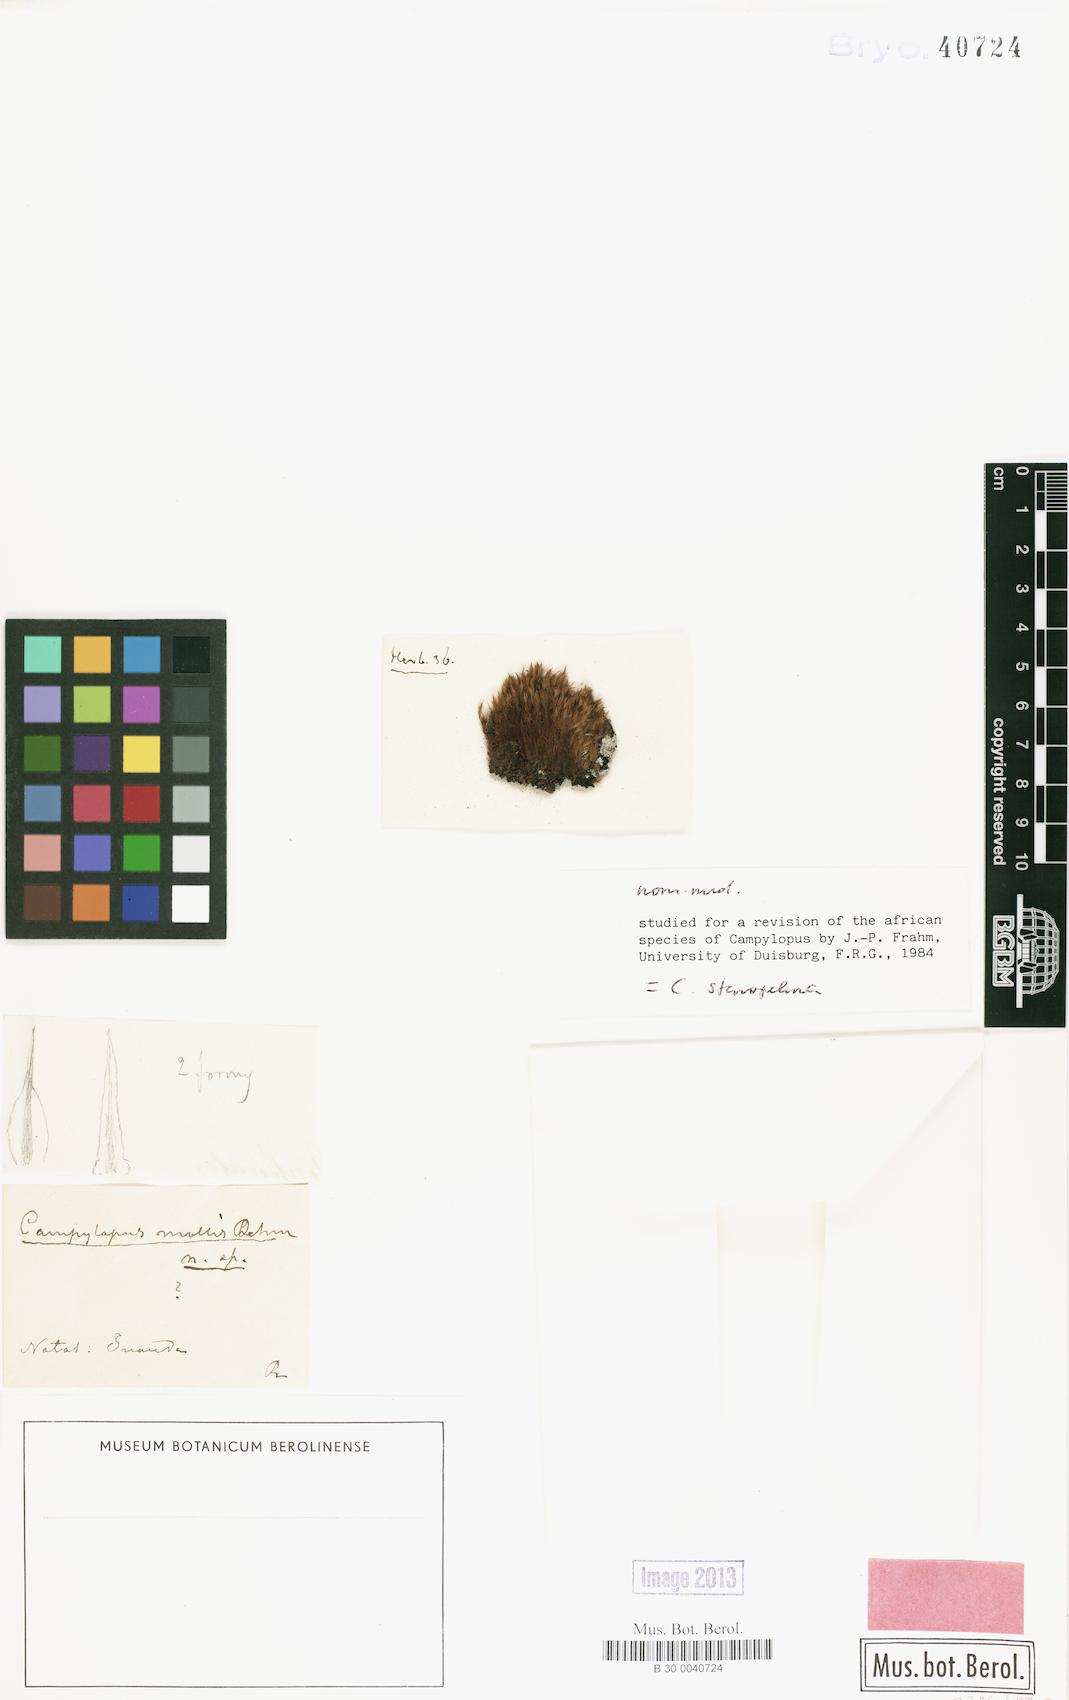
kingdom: Plantae
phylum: Bryophyta
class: Bryopsida
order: Dicranales
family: Leucobryaceae
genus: Campylopus
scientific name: Campylopus thwaitesii
